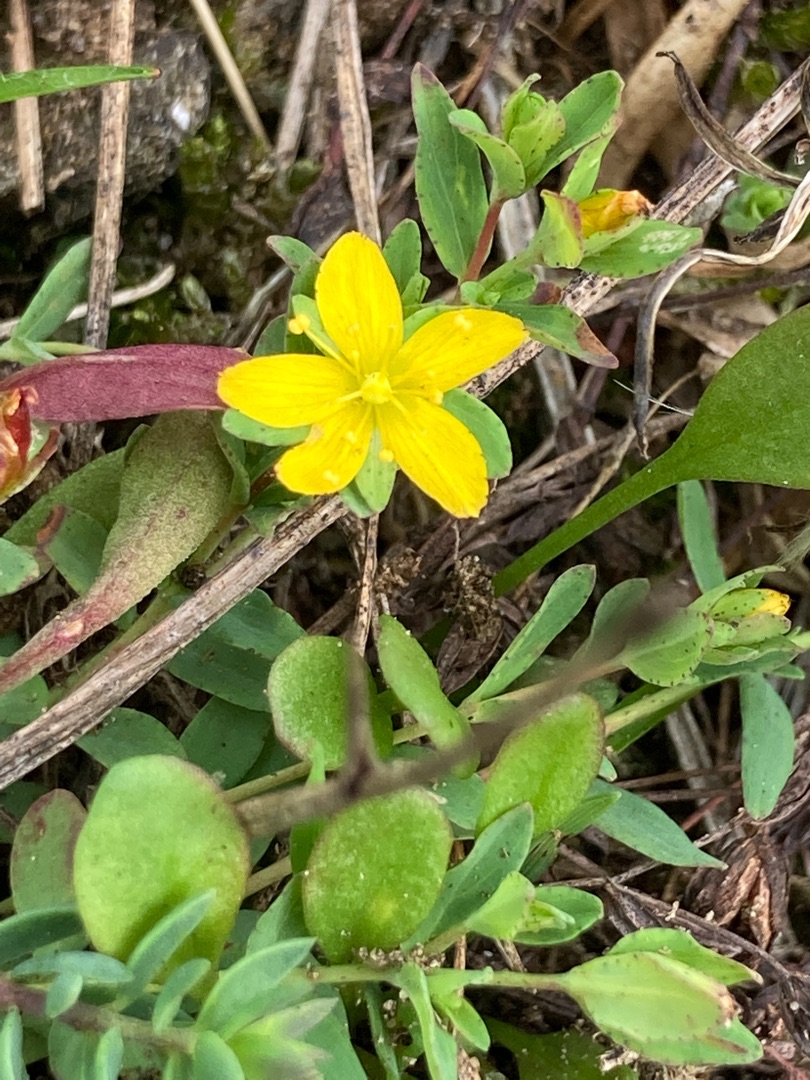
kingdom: Plantae
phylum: Tracheophyta
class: Magnoliopsida
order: Malpighiales
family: Hypericaceae
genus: Hypericum
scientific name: Hypericum humifusum
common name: Dværg-perikon
